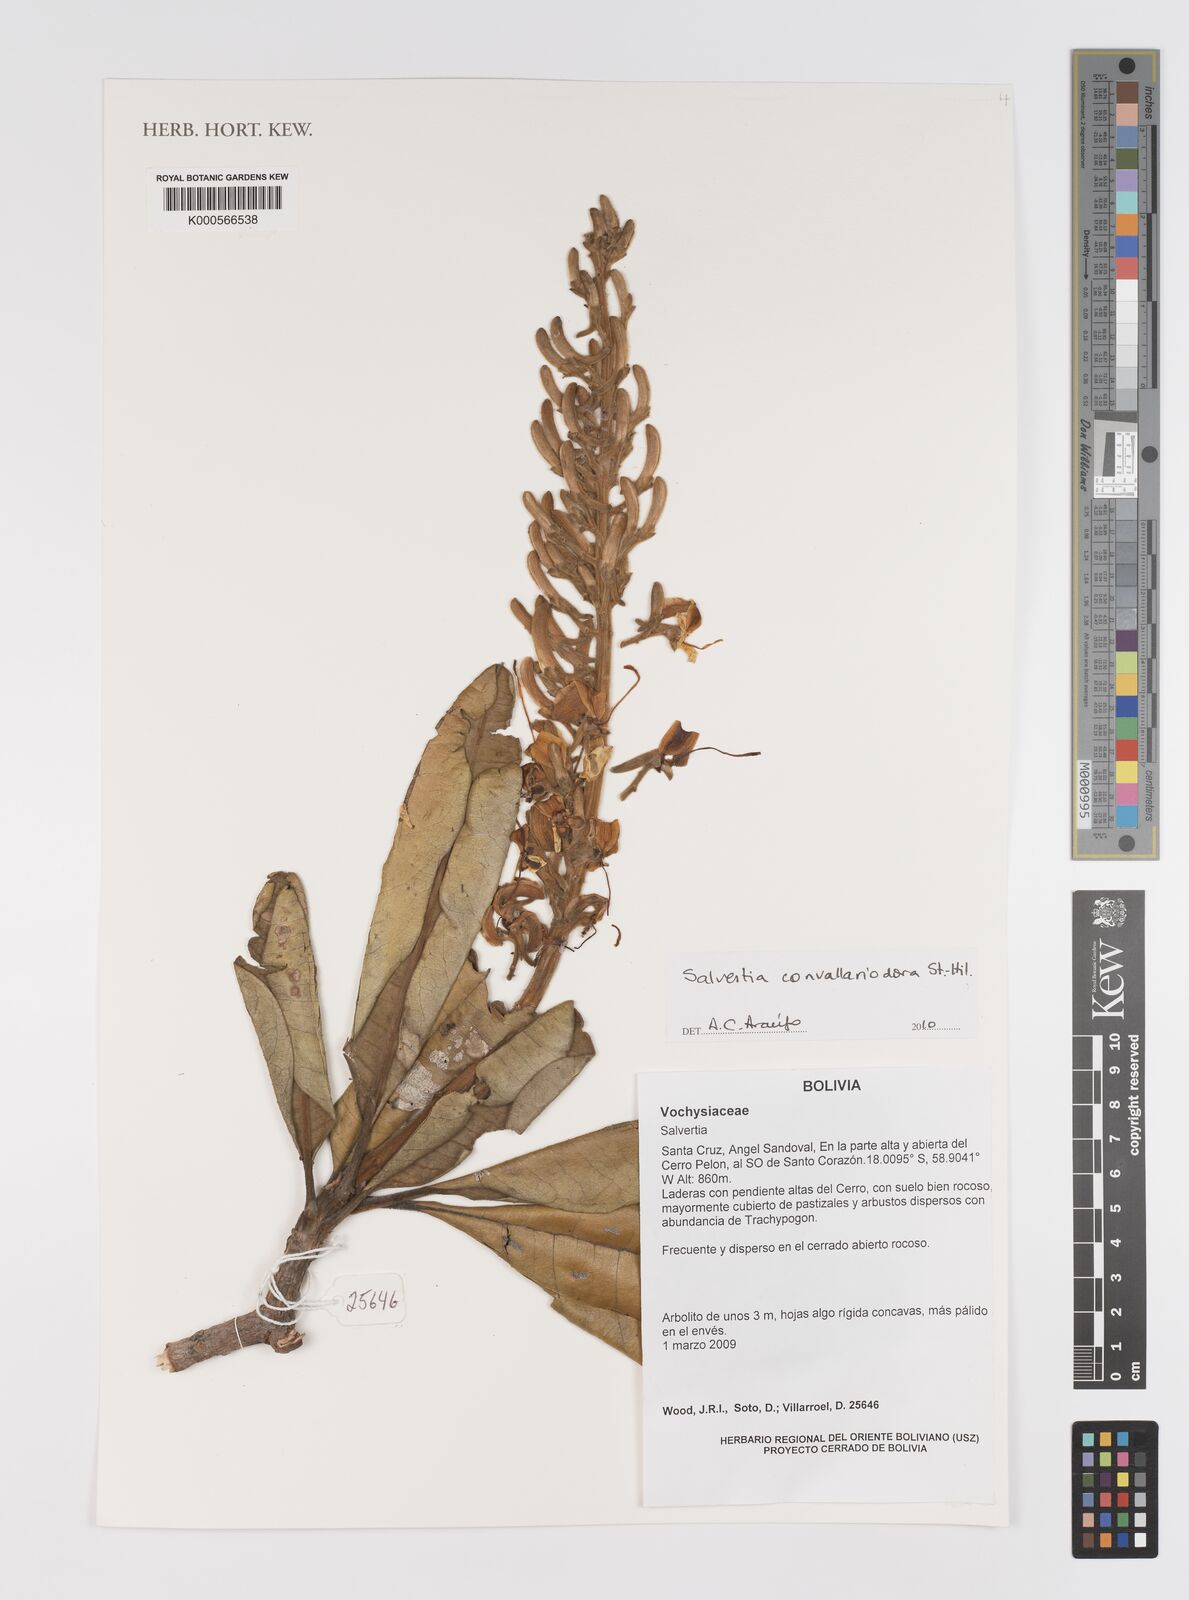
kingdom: Plantae
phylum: Tracheophyta
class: Magnoliopsida
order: Myrtales
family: Vochysiaceae
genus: Salvertia
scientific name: Salvertia
